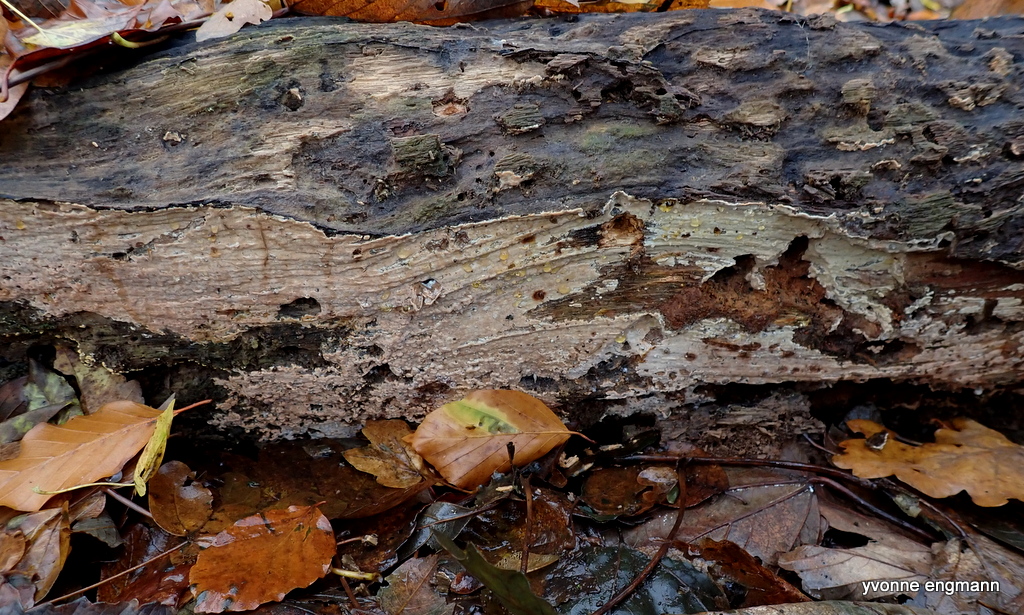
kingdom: Fungi
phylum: Basidiomycota
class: Agaricomycetes
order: Russulales
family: Peniophoraceae
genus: Gloiothele
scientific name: Gloiothele lactescens
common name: bitter olieskind
